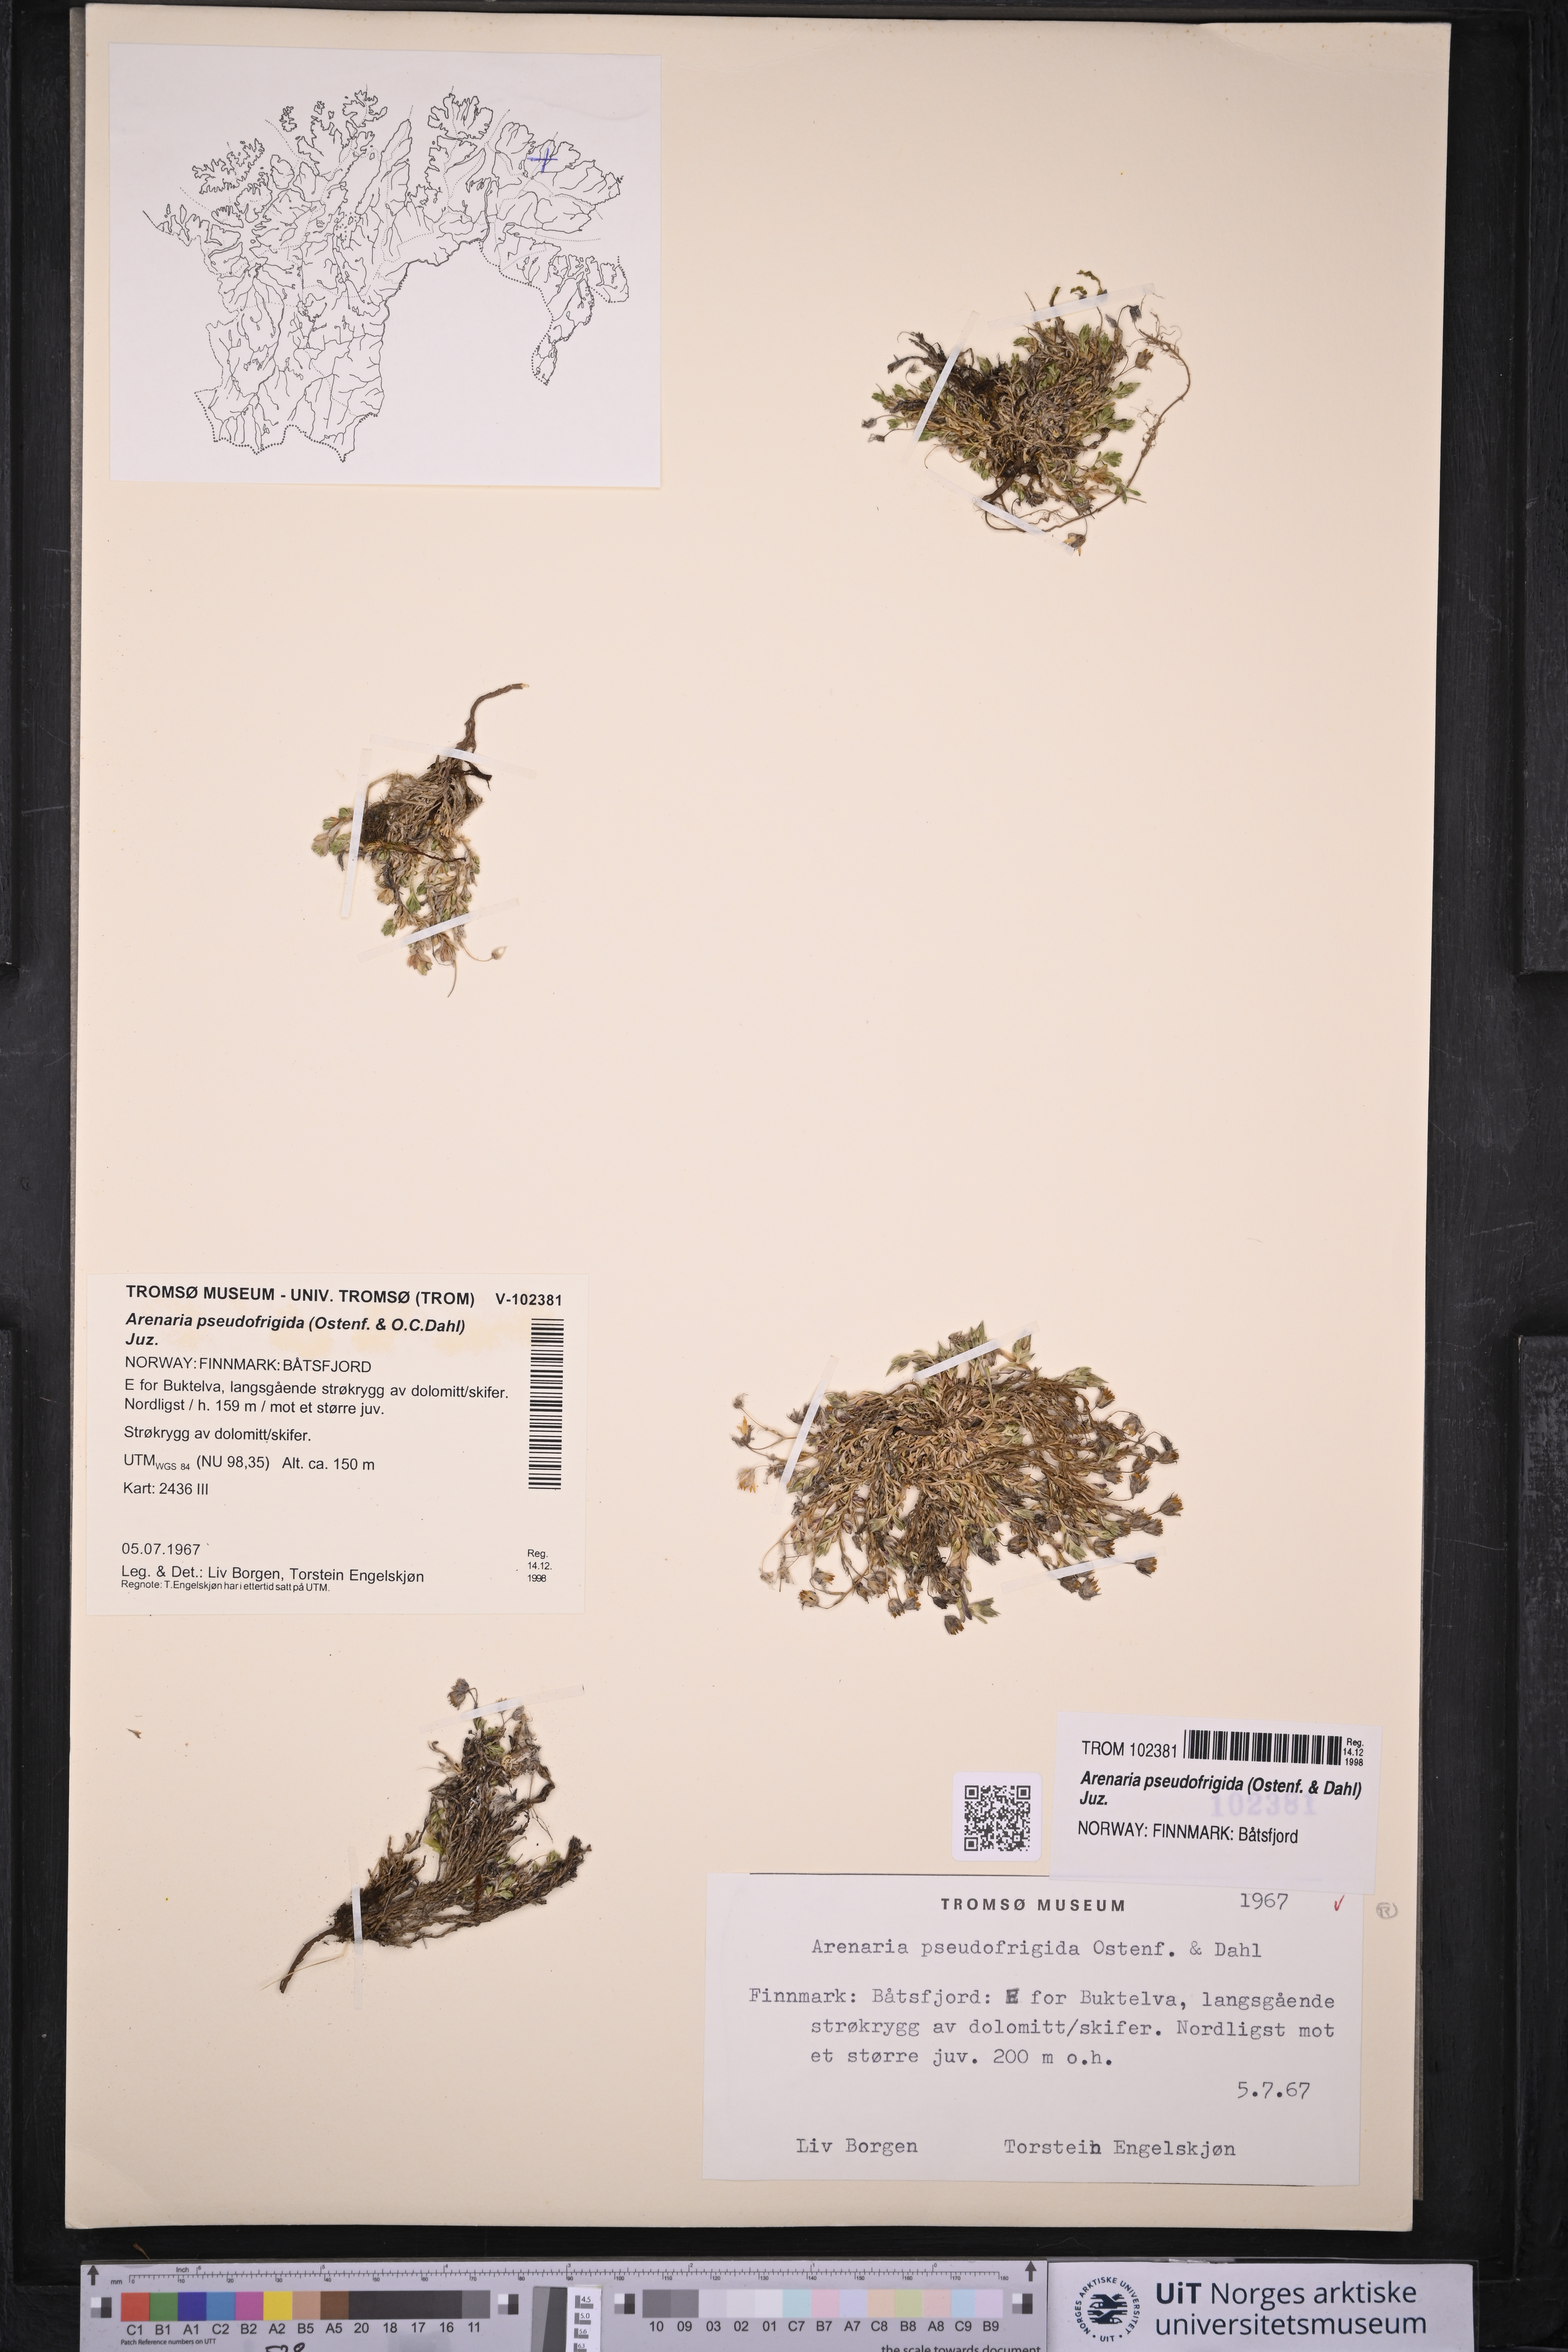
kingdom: Plantae
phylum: Tracheophyta
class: Magnoliopsida
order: Caryophyllales
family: Caryophyllaceae
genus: Arenaria
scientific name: Arenaria pseudofrigida
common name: Tundra sandwort
